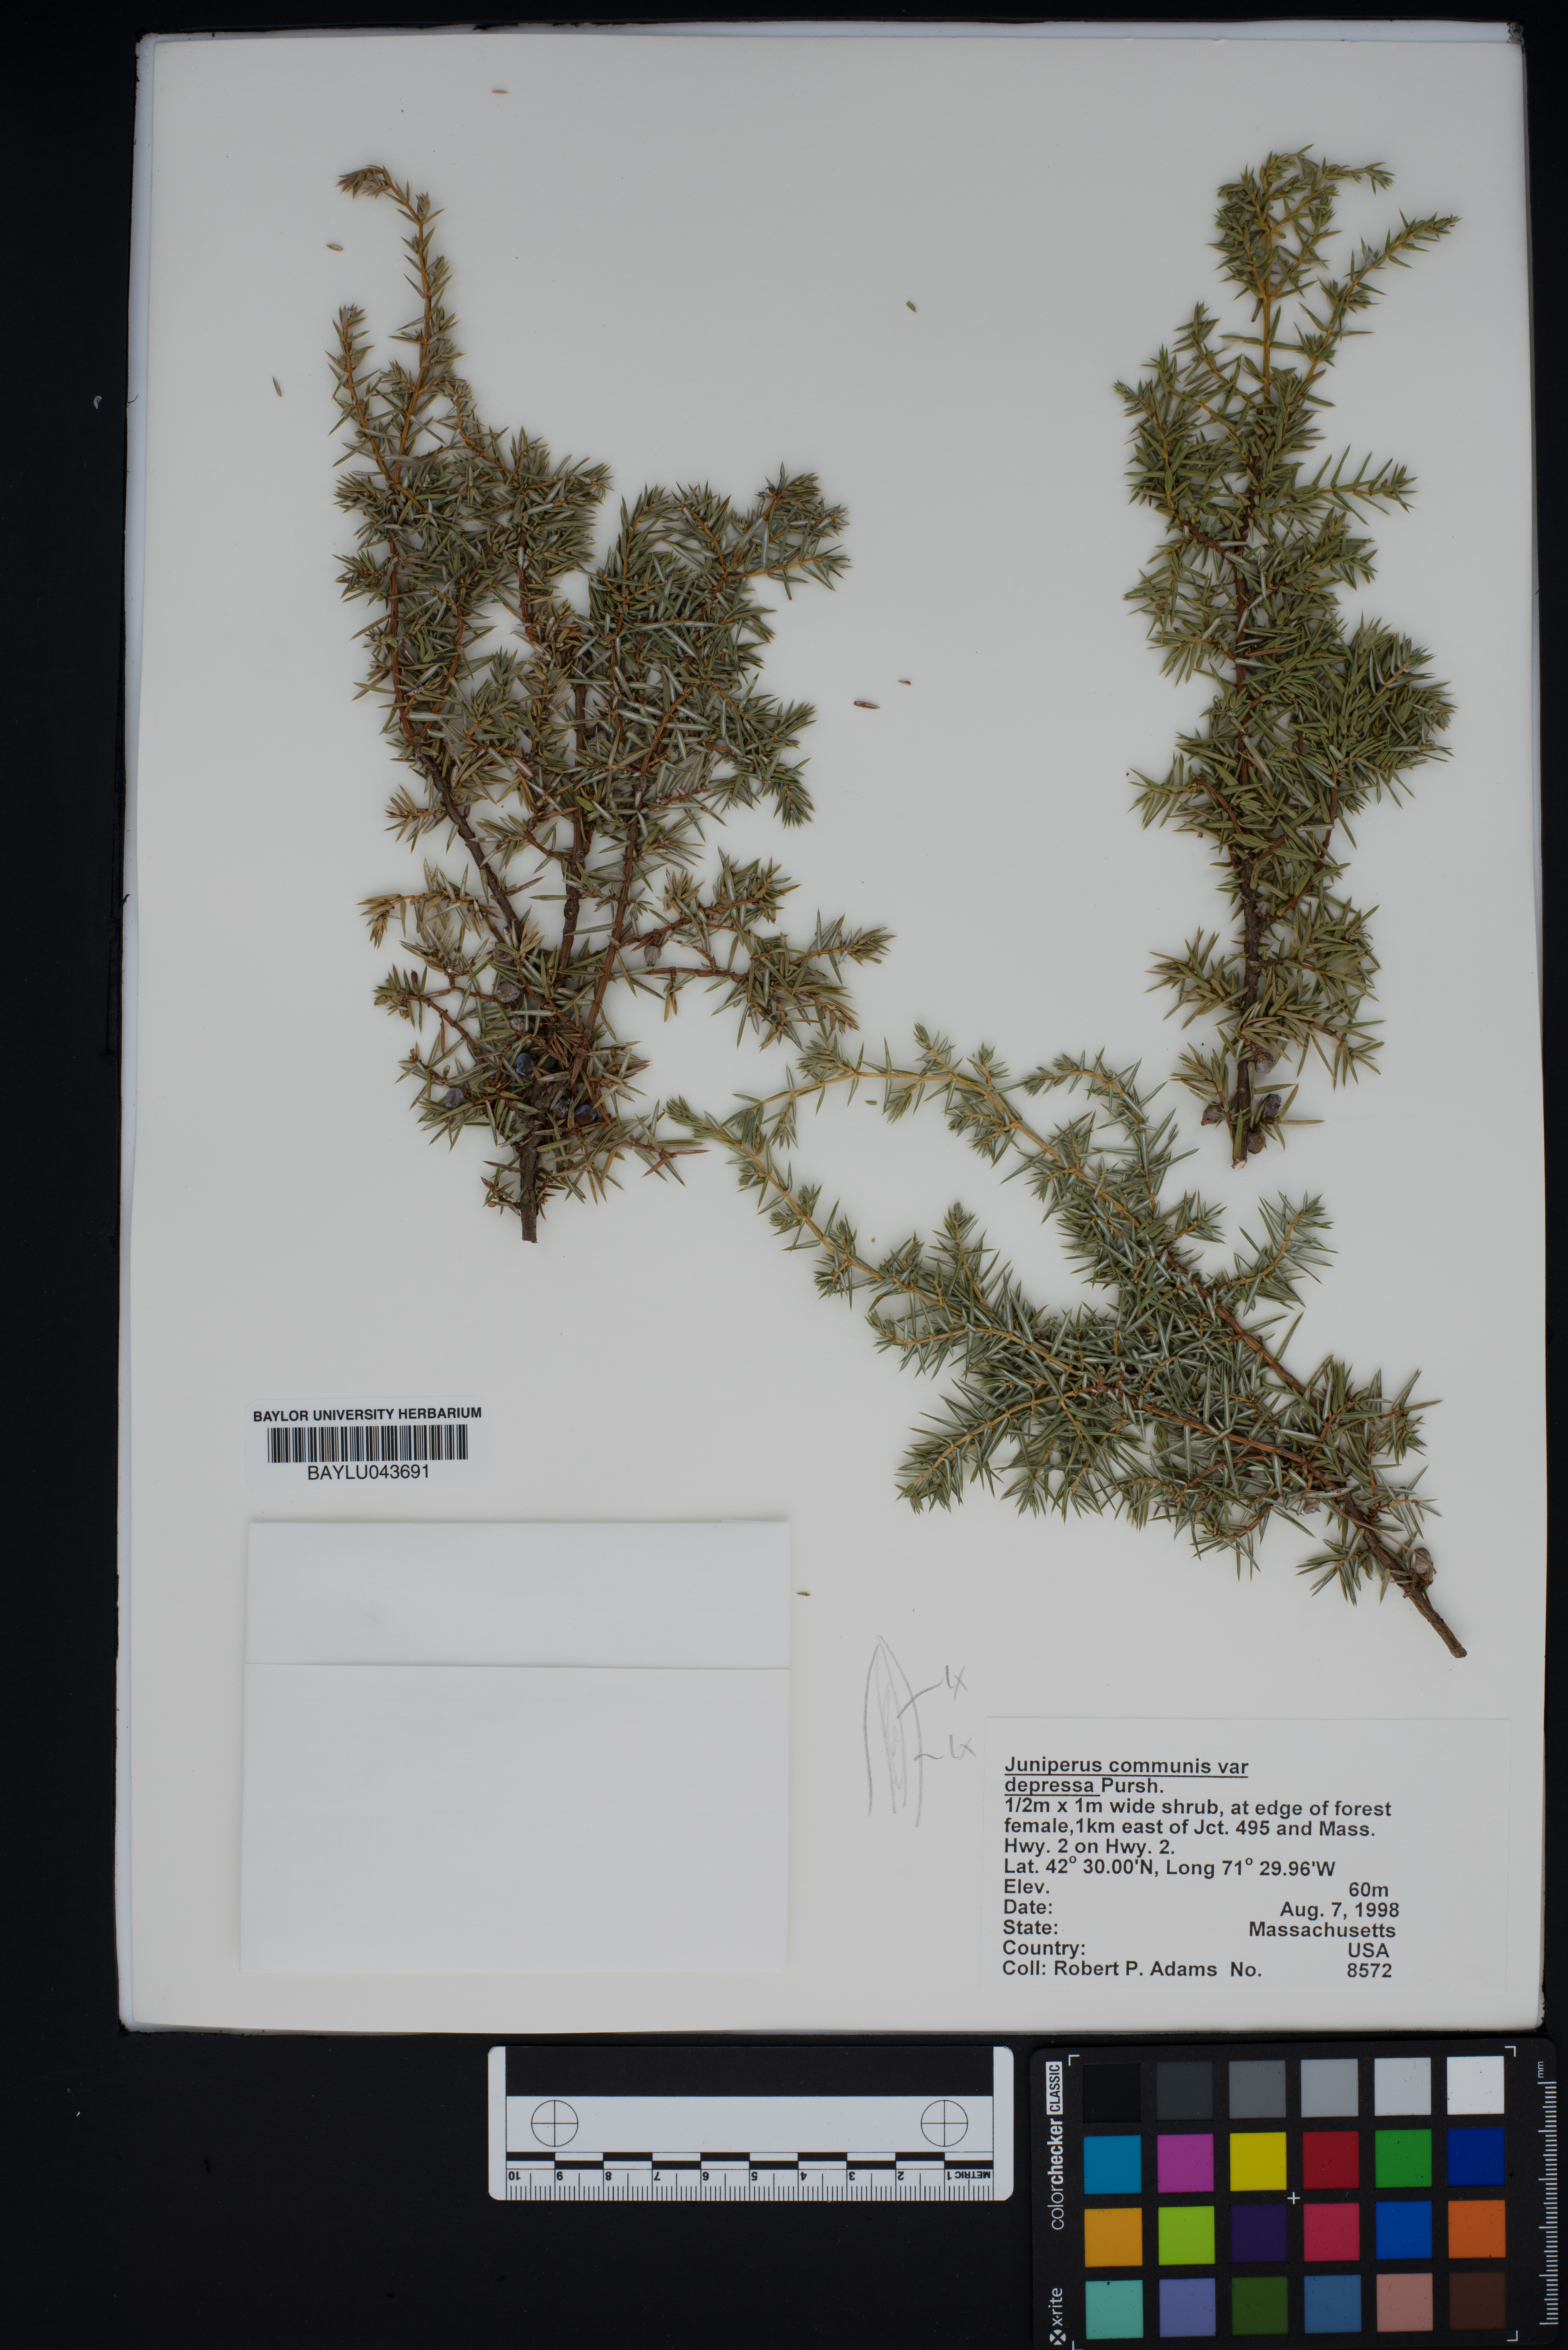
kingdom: Plantae
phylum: Tracheophyta
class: Pinopsida
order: Pinales
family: Cupressaceae
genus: Juniperus
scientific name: Juniperus communis
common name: Common juniper
